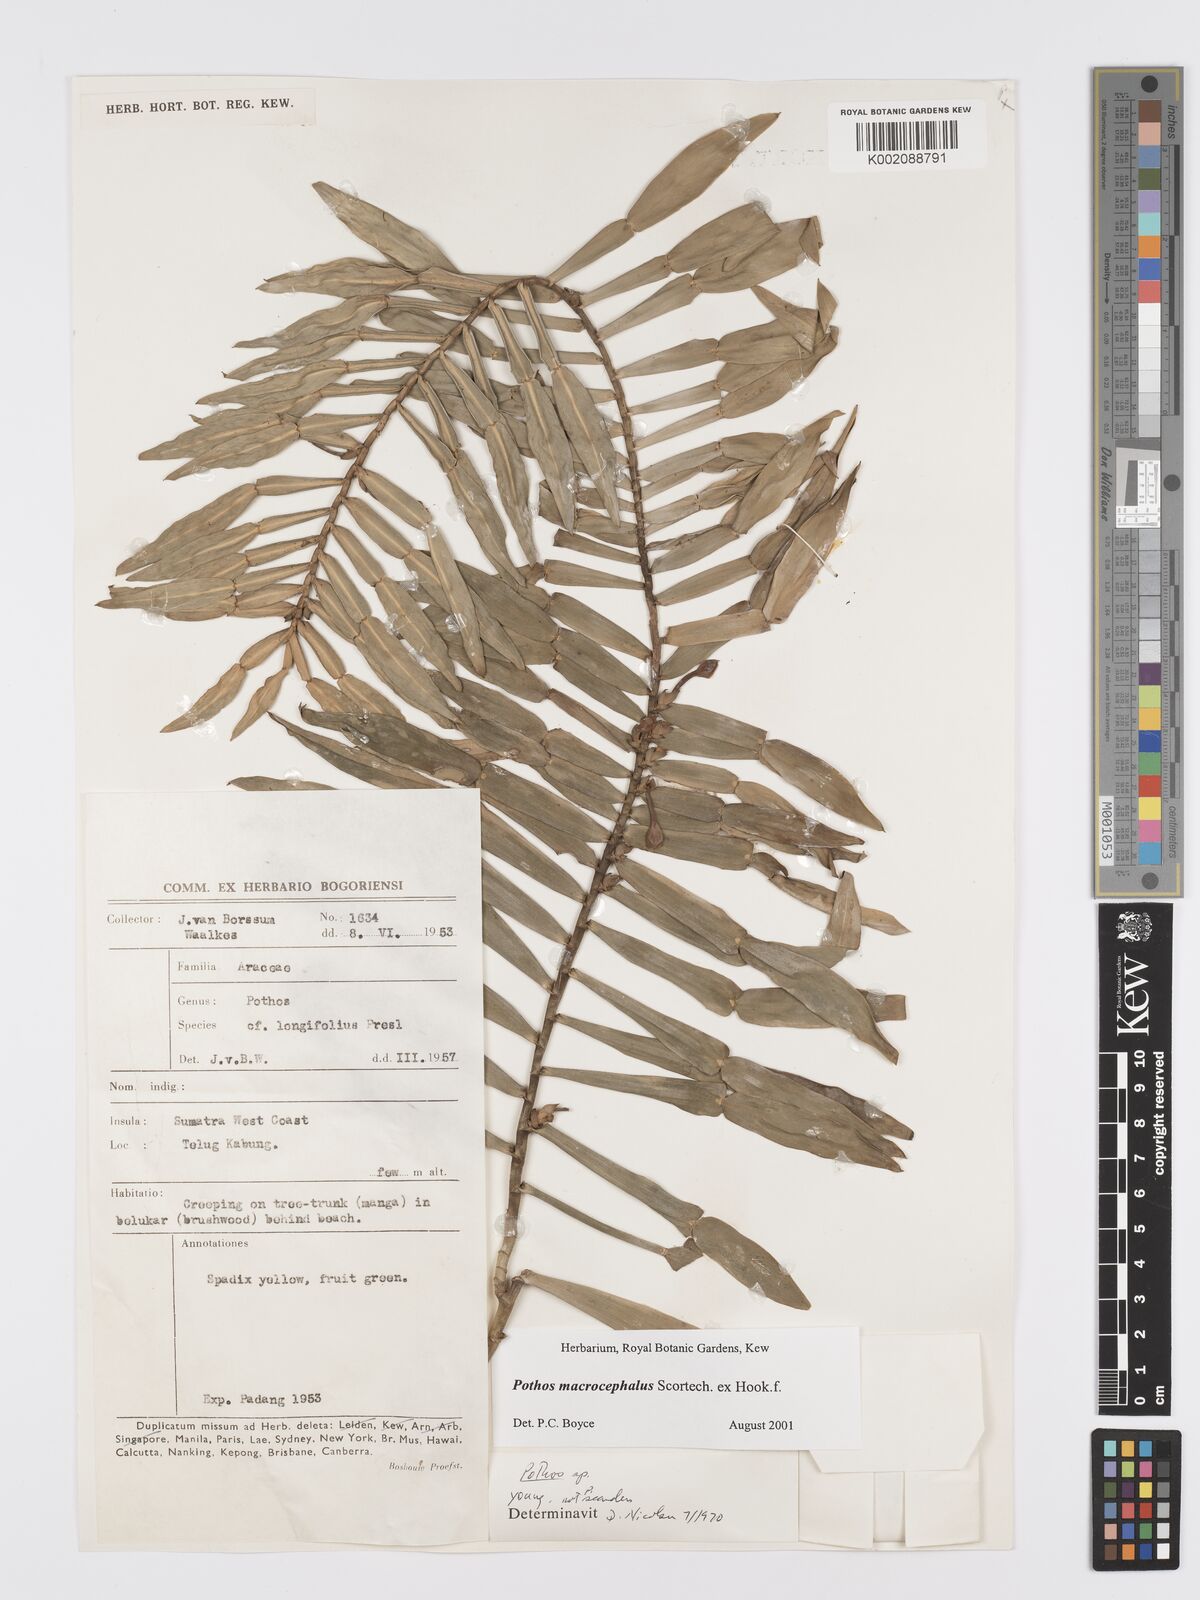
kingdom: Plantae
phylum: Tracheophyta
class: Liliopsida
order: Alismatales
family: Araceae
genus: Pothos
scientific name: Pothos macrocephalus
